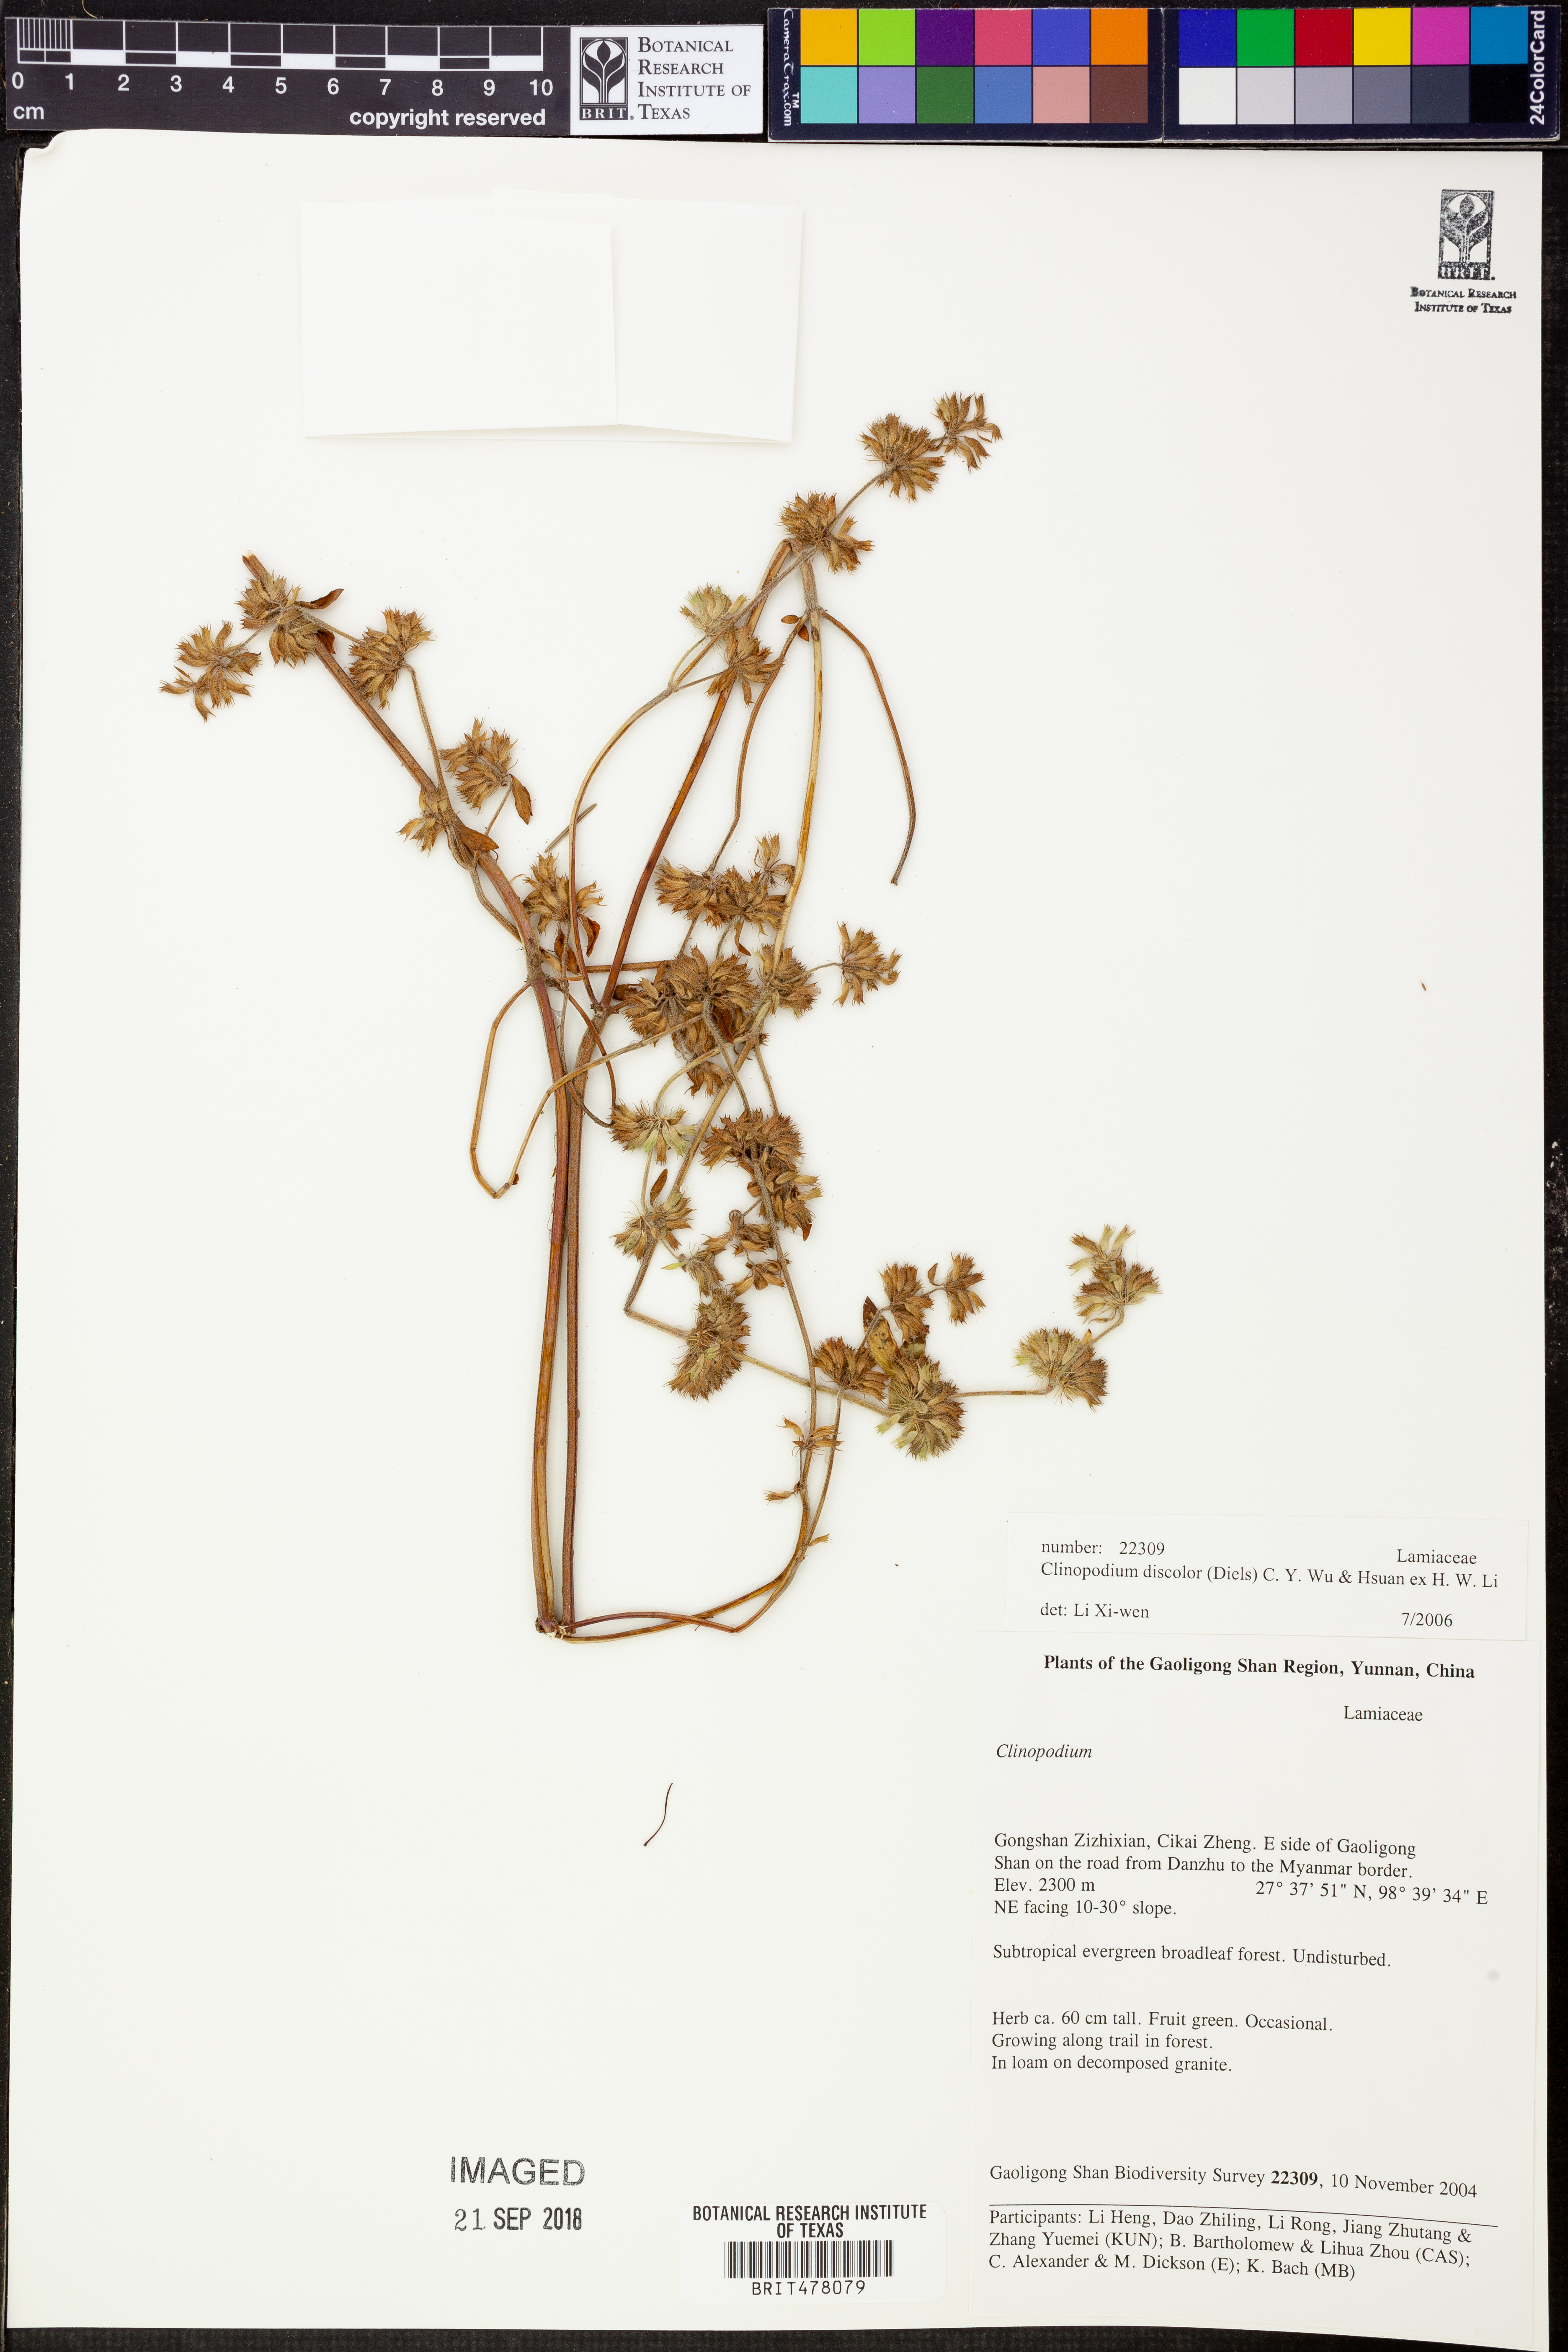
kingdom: Plantae
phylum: Tracheophyta
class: Magnoliopsida
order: Lamiales
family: Lamiaceae
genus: Clinopodium
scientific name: Clinopodium discolor
